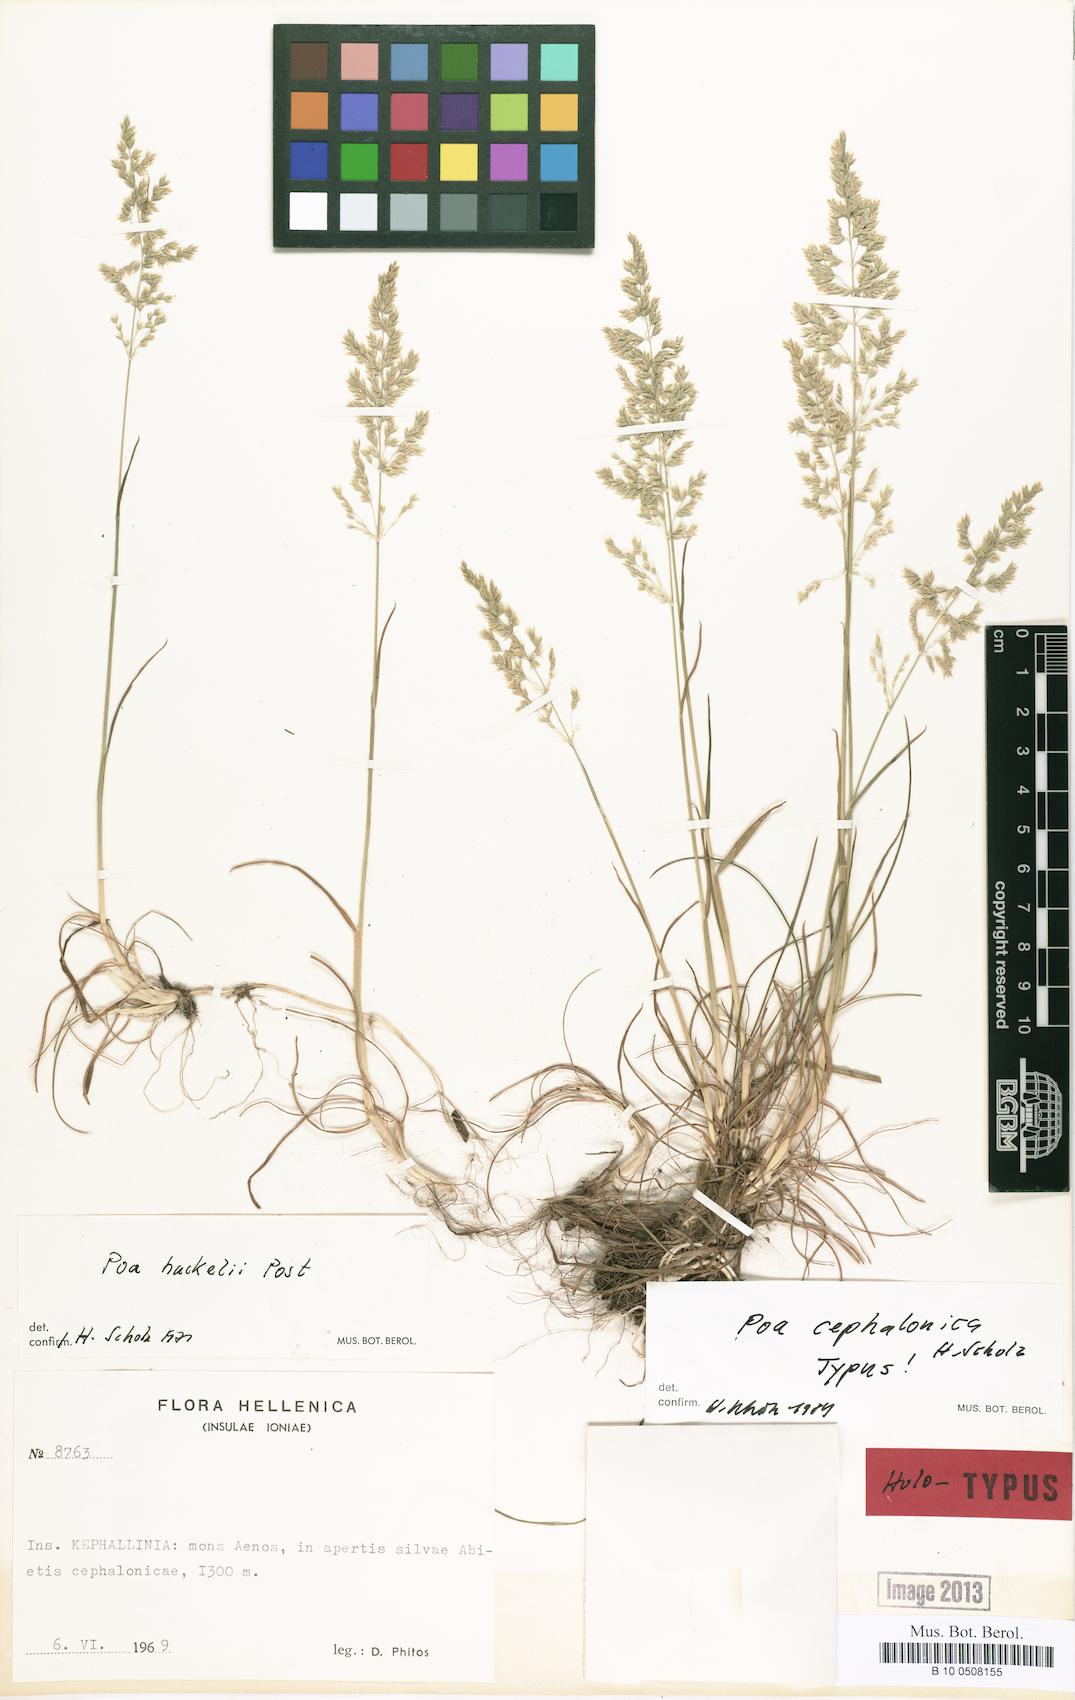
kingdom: Plantae
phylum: Tracheophyta
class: Liliopsida
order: Poales
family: Poaceae
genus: Poa
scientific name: Poa bulbosa
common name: Bulbous bluegrass
